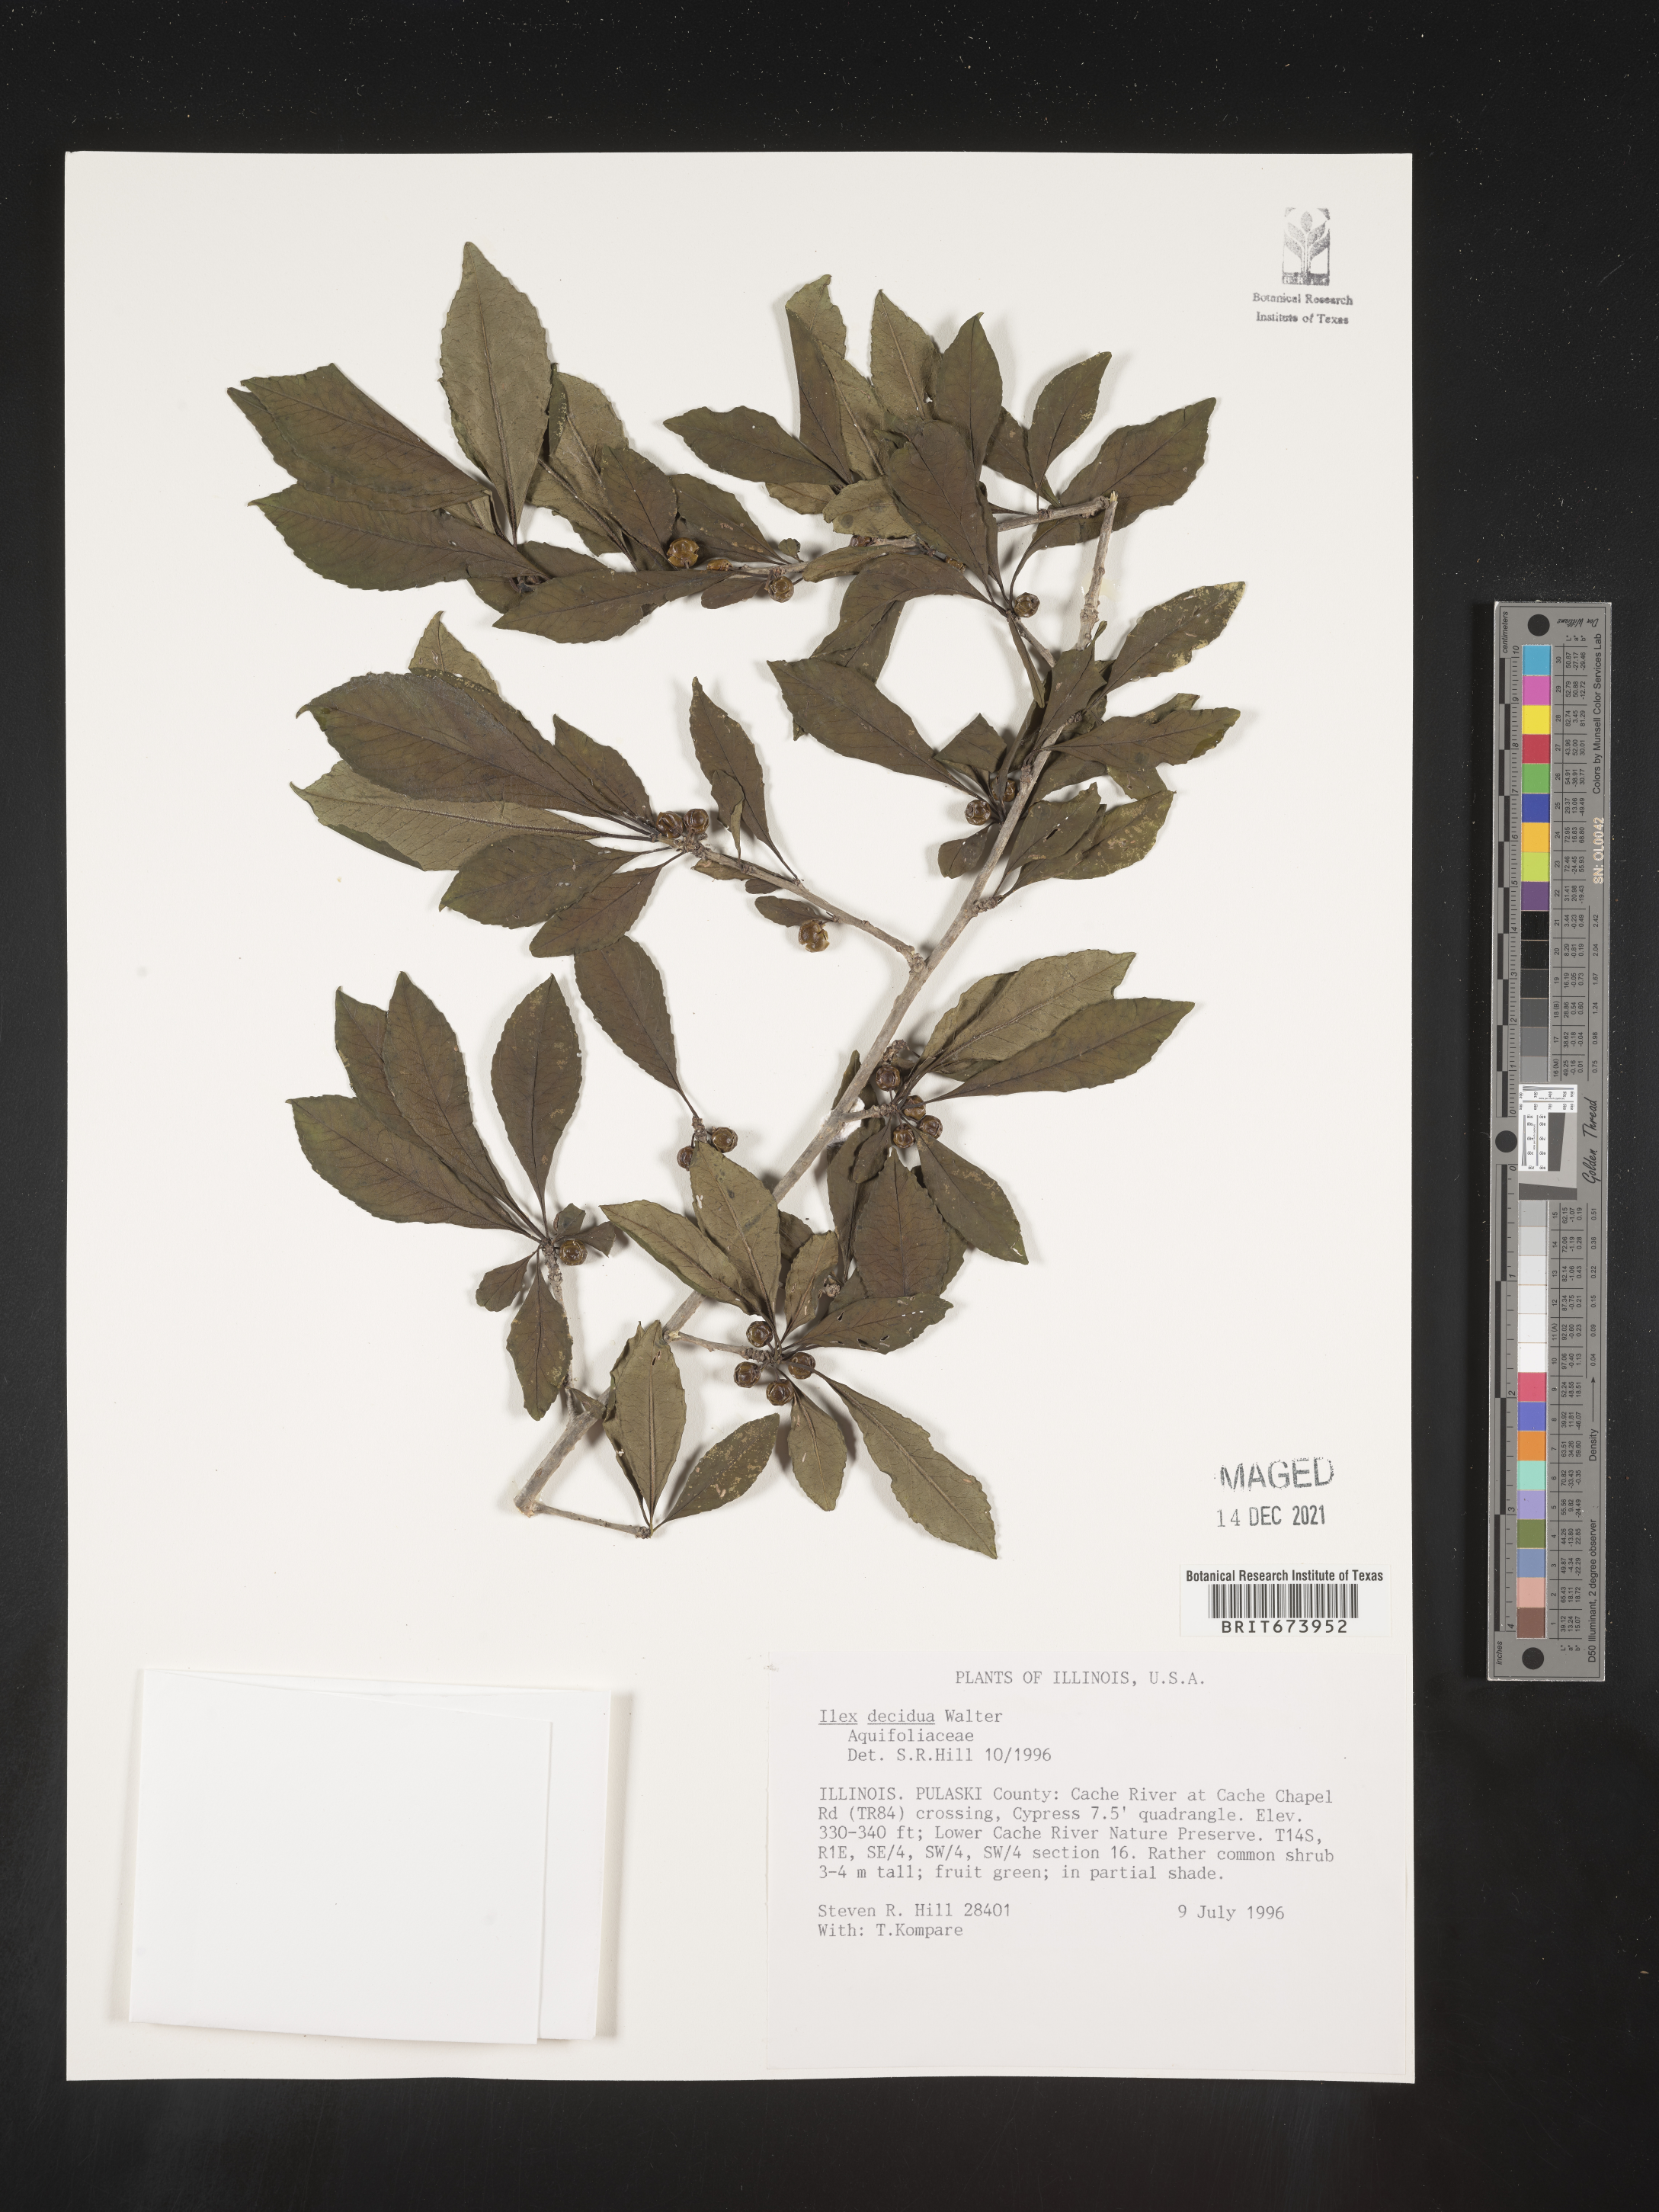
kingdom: Plantae
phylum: Tracheophyta
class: Magnoliopsida
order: Aquifoliales
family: Aquifoliaceae
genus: Ilex
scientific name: Ilex decidua
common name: Possum-haw
